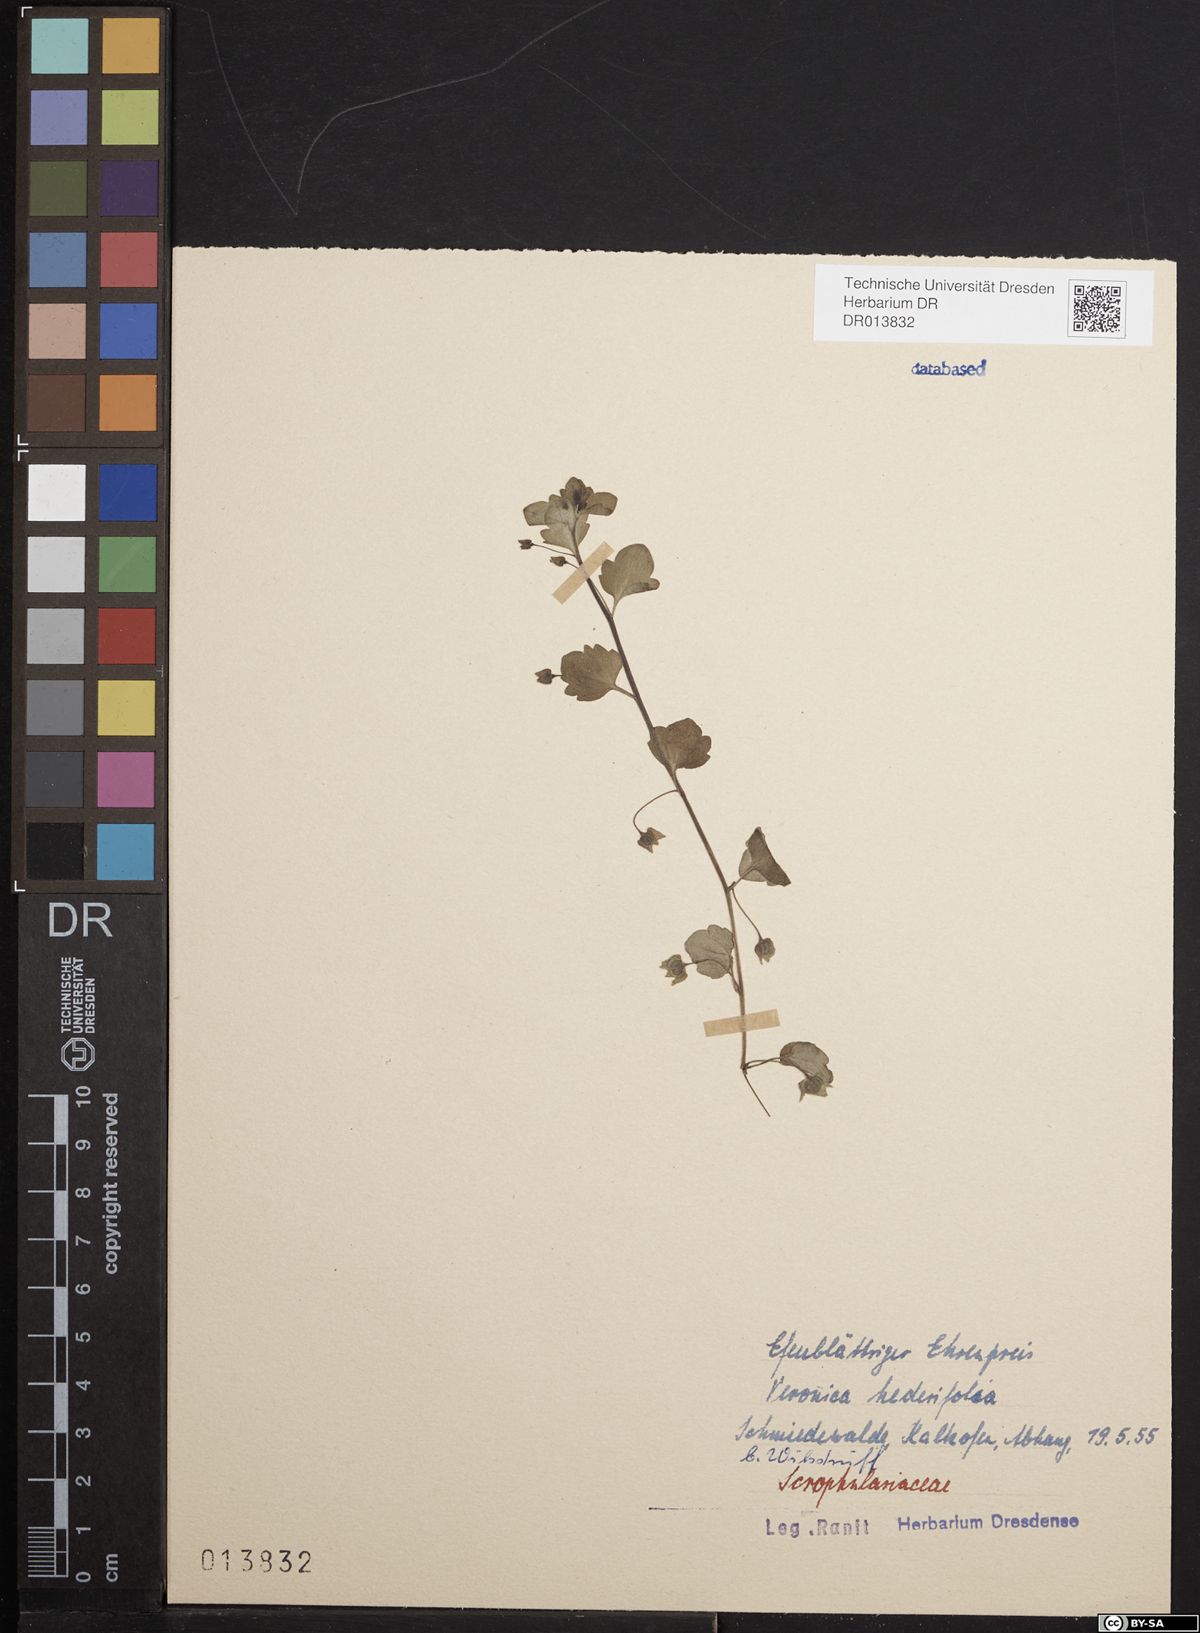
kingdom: Plantae
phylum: Tracheophyta
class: Magnoliopsida
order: Lamiales
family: Plantaginaceae
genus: Veronica
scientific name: Veronica hederifolia
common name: Ivy-leaved speedwell
